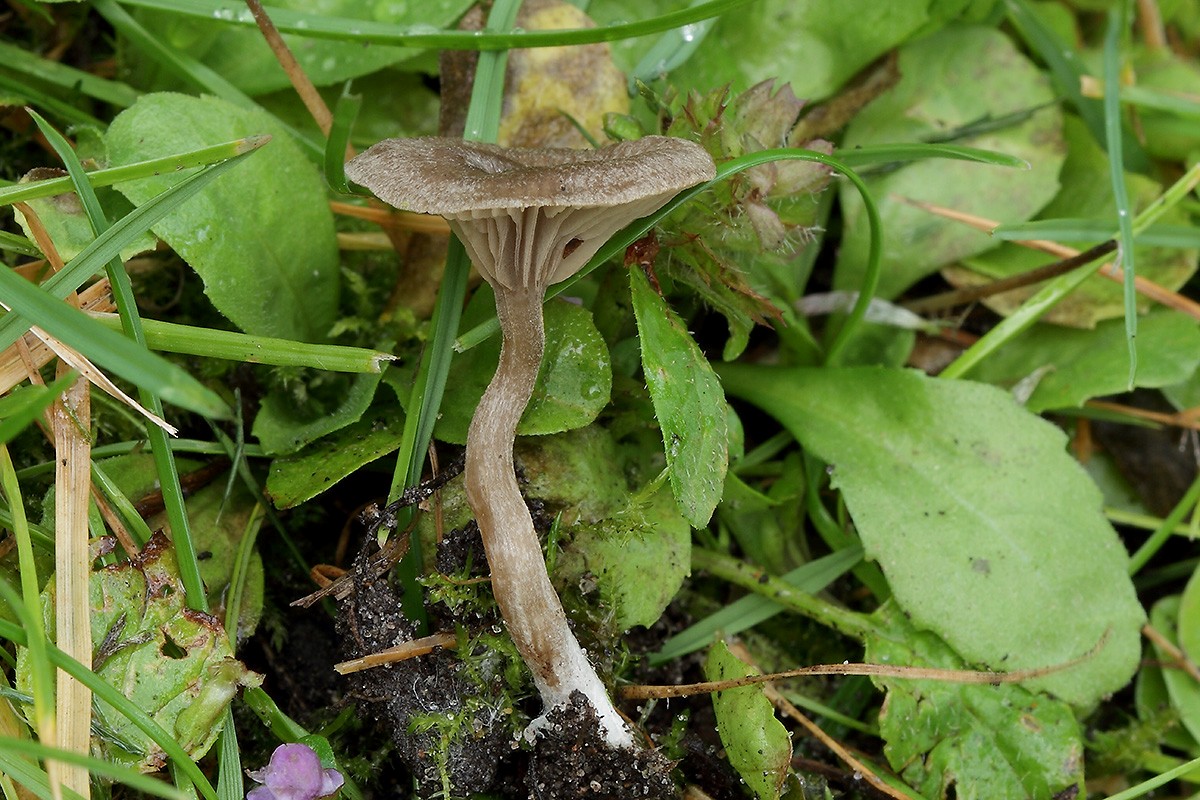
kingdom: Fungi
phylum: Basidiomycota
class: Agaricomycetes
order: Agaricales
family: Entolomataceae
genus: Entoloma
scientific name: Entoloma undatum
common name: bæltet rødblad
